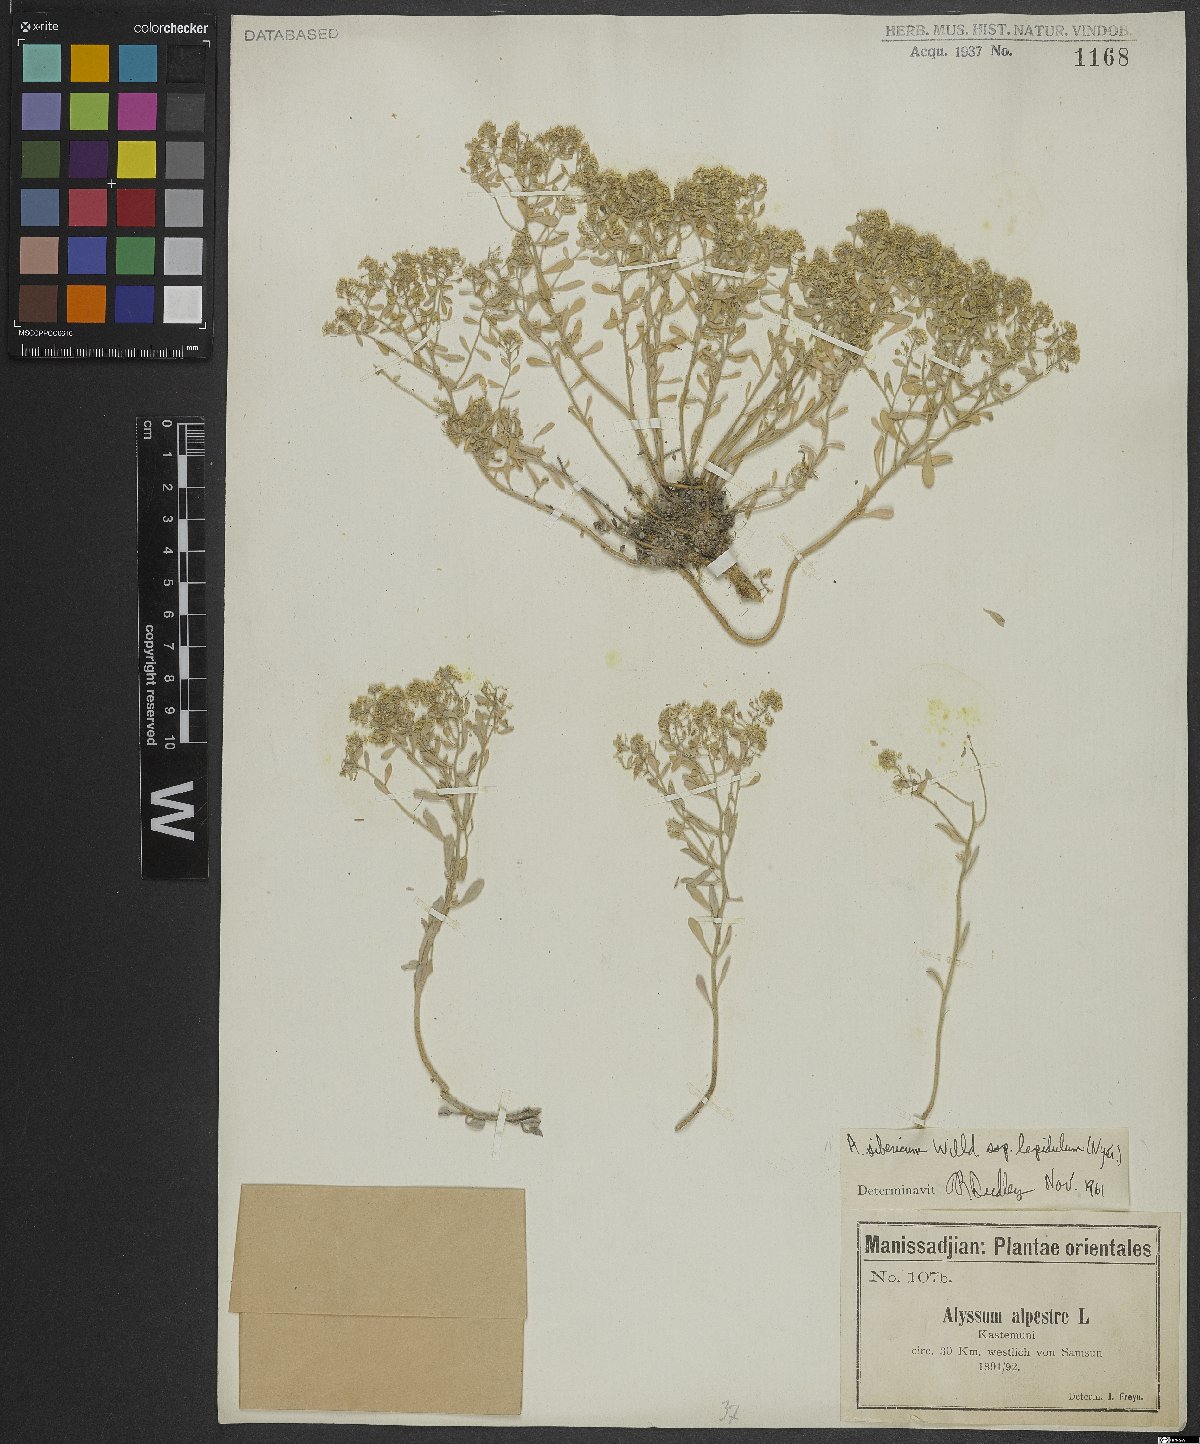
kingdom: Plantae
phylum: Tracheophyta
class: Magnoliopsida
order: Brassicales
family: Brassicaceae
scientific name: Brassicaceae
